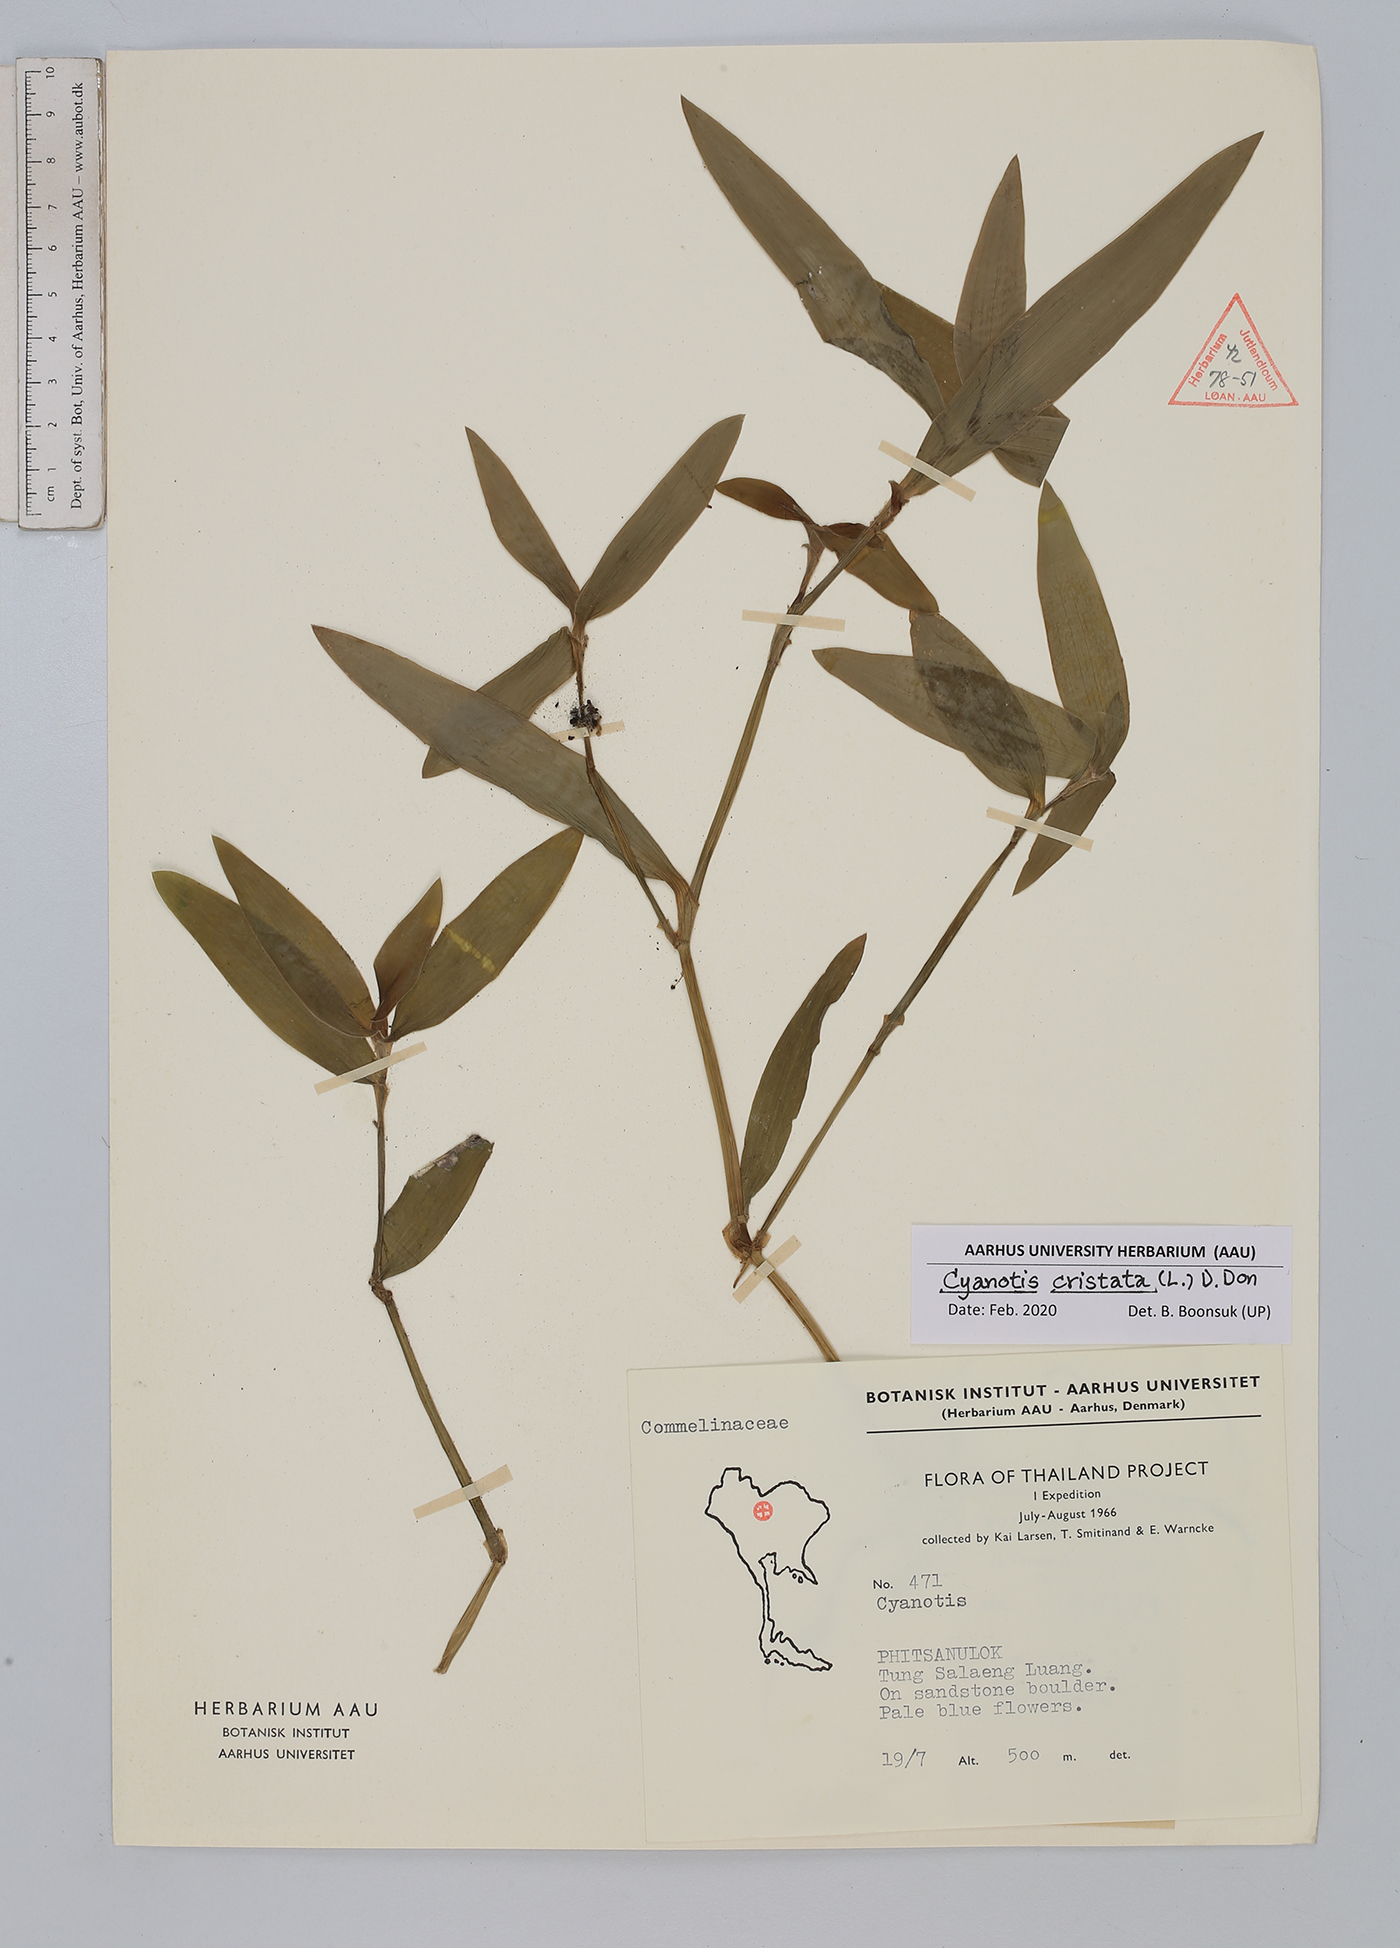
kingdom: Plantae
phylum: Tracheophyta
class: Liliopsida
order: Commelinales
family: Commelinaceae
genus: Cyanotis
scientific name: Cyanotis cristata
